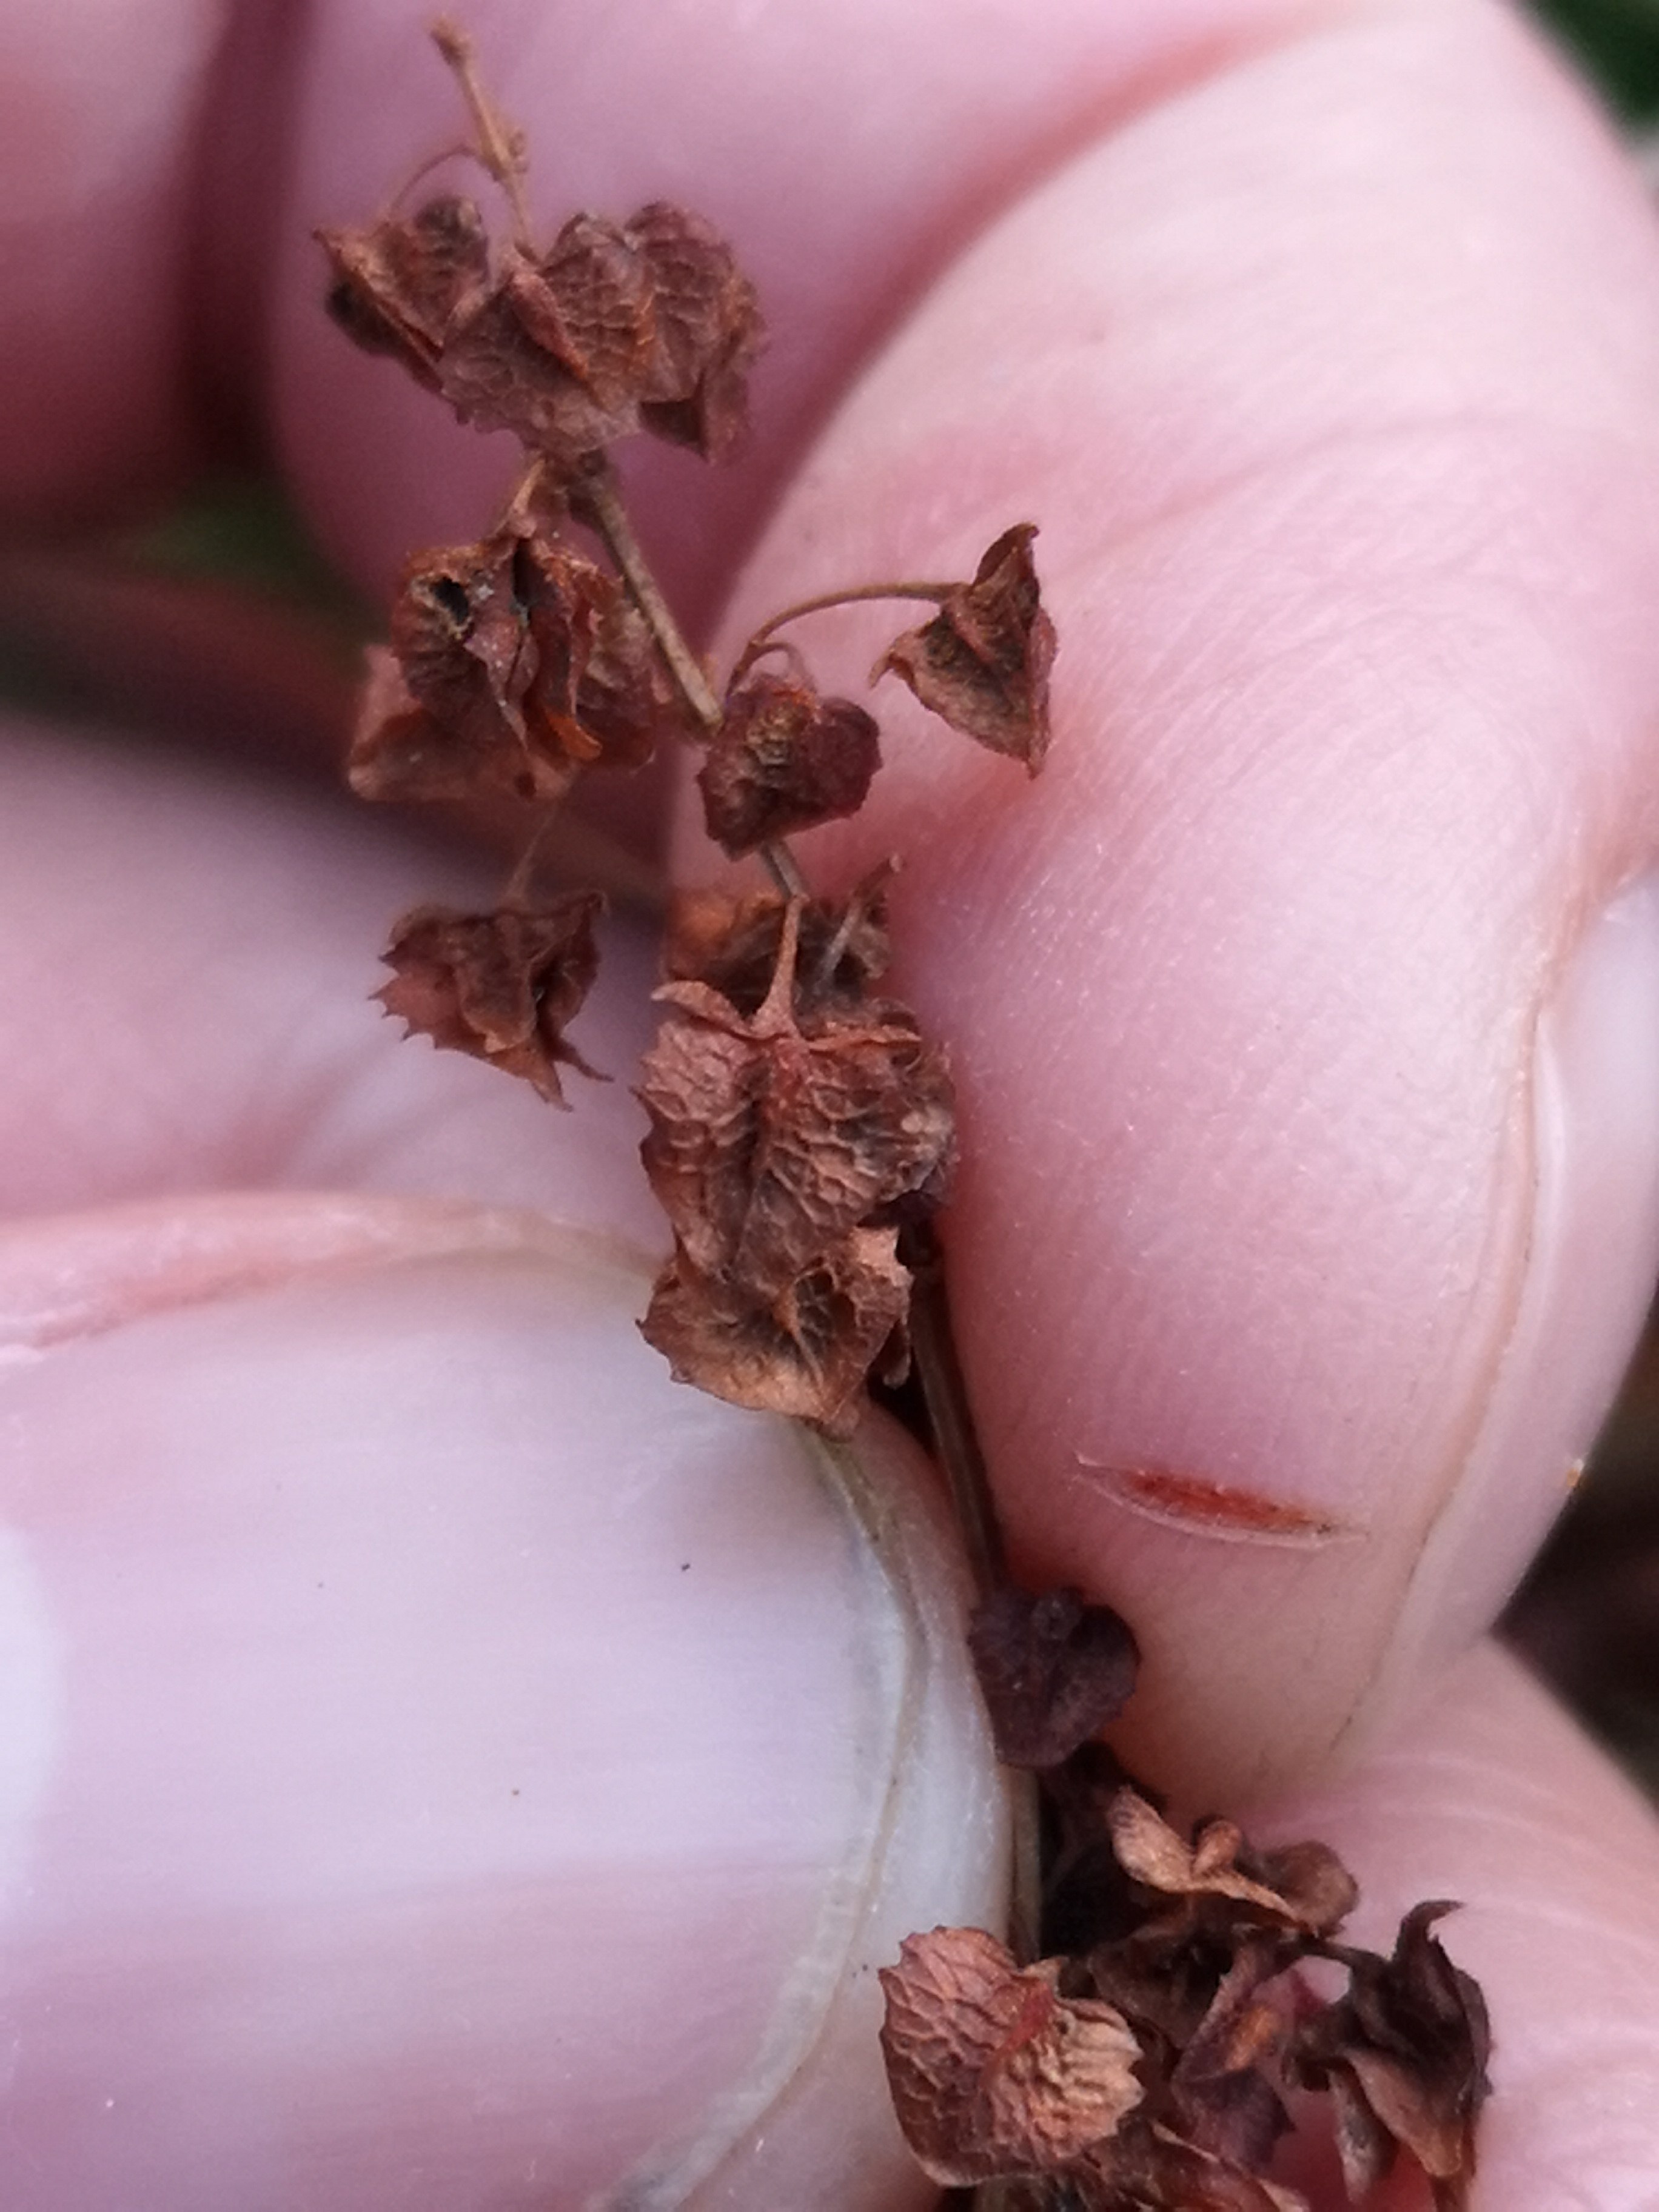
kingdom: Fungi
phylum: Basidiomycota
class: Pucciniomycetes
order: Pucciniales
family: Pucciniaceae
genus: Uromyces
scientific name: Uromyces rumicis
